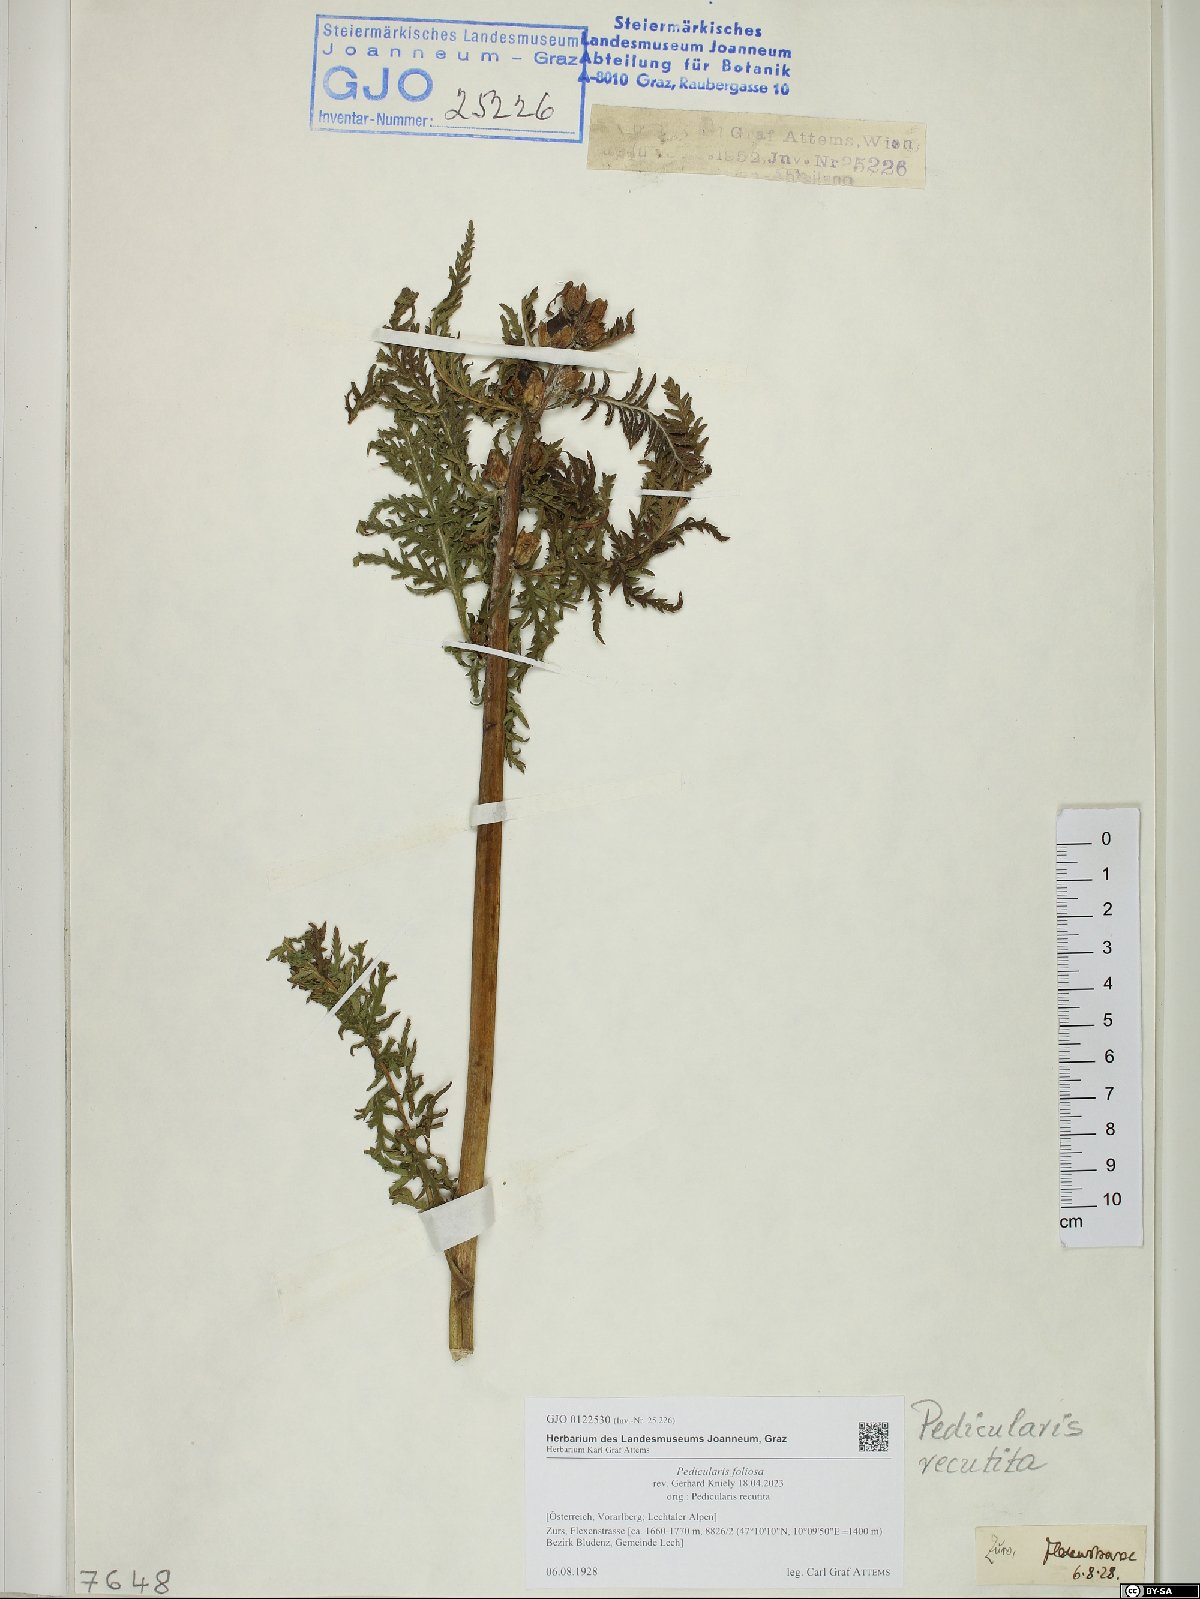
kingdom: Plantae
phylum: Tracheophyta
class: Magnoliopsida
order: Lamiales
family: Orobanchaceae
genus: Pedicularis
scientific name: Pedicularis foliosa
